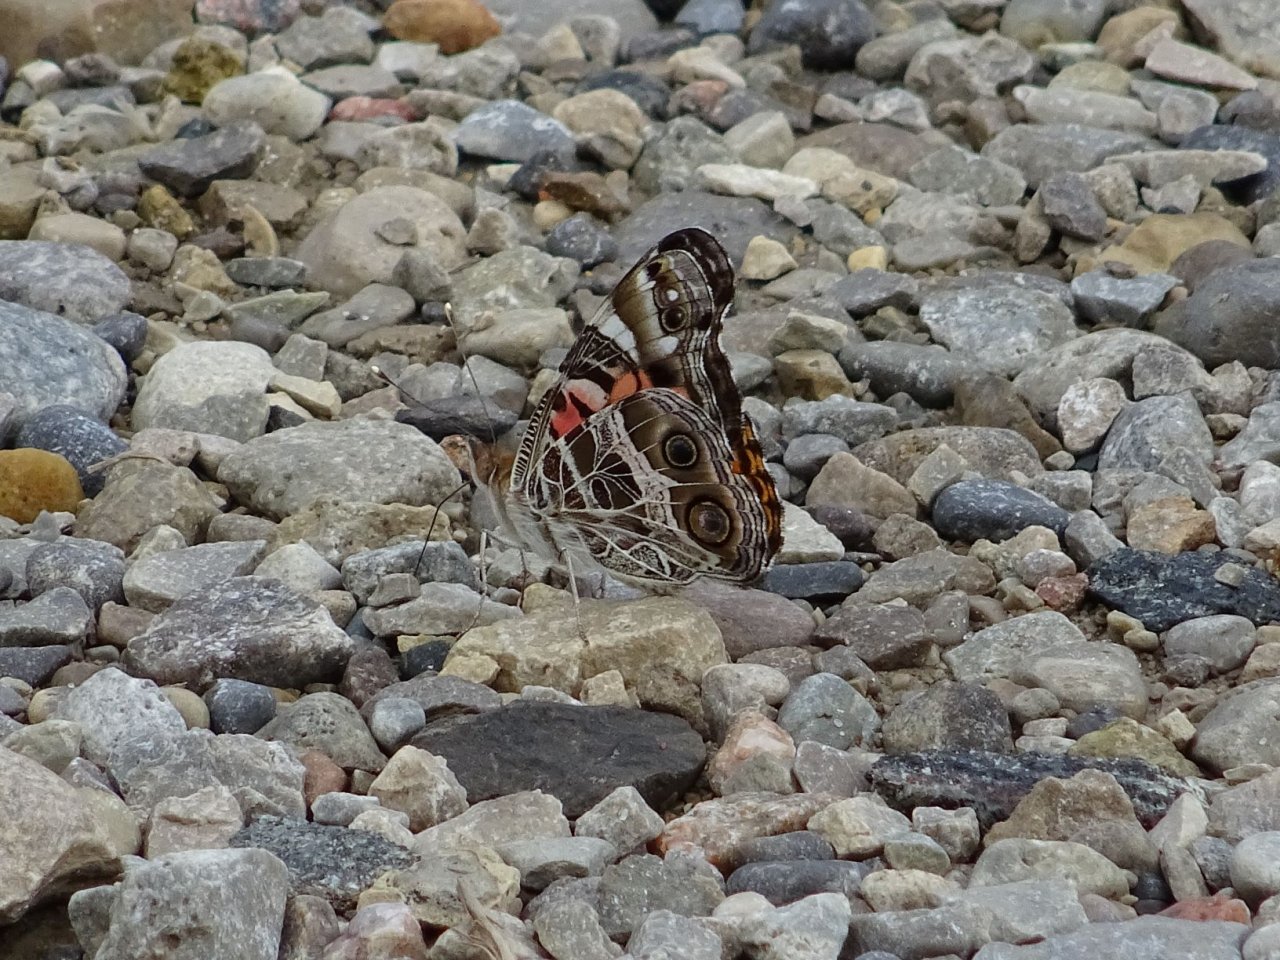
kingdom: Animalia
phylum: Arthropoda
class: Insecta
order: Lepidoptera
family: Nymphalidae
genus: Vanessa
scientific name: Vanessa virginiensis
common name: American Lady
